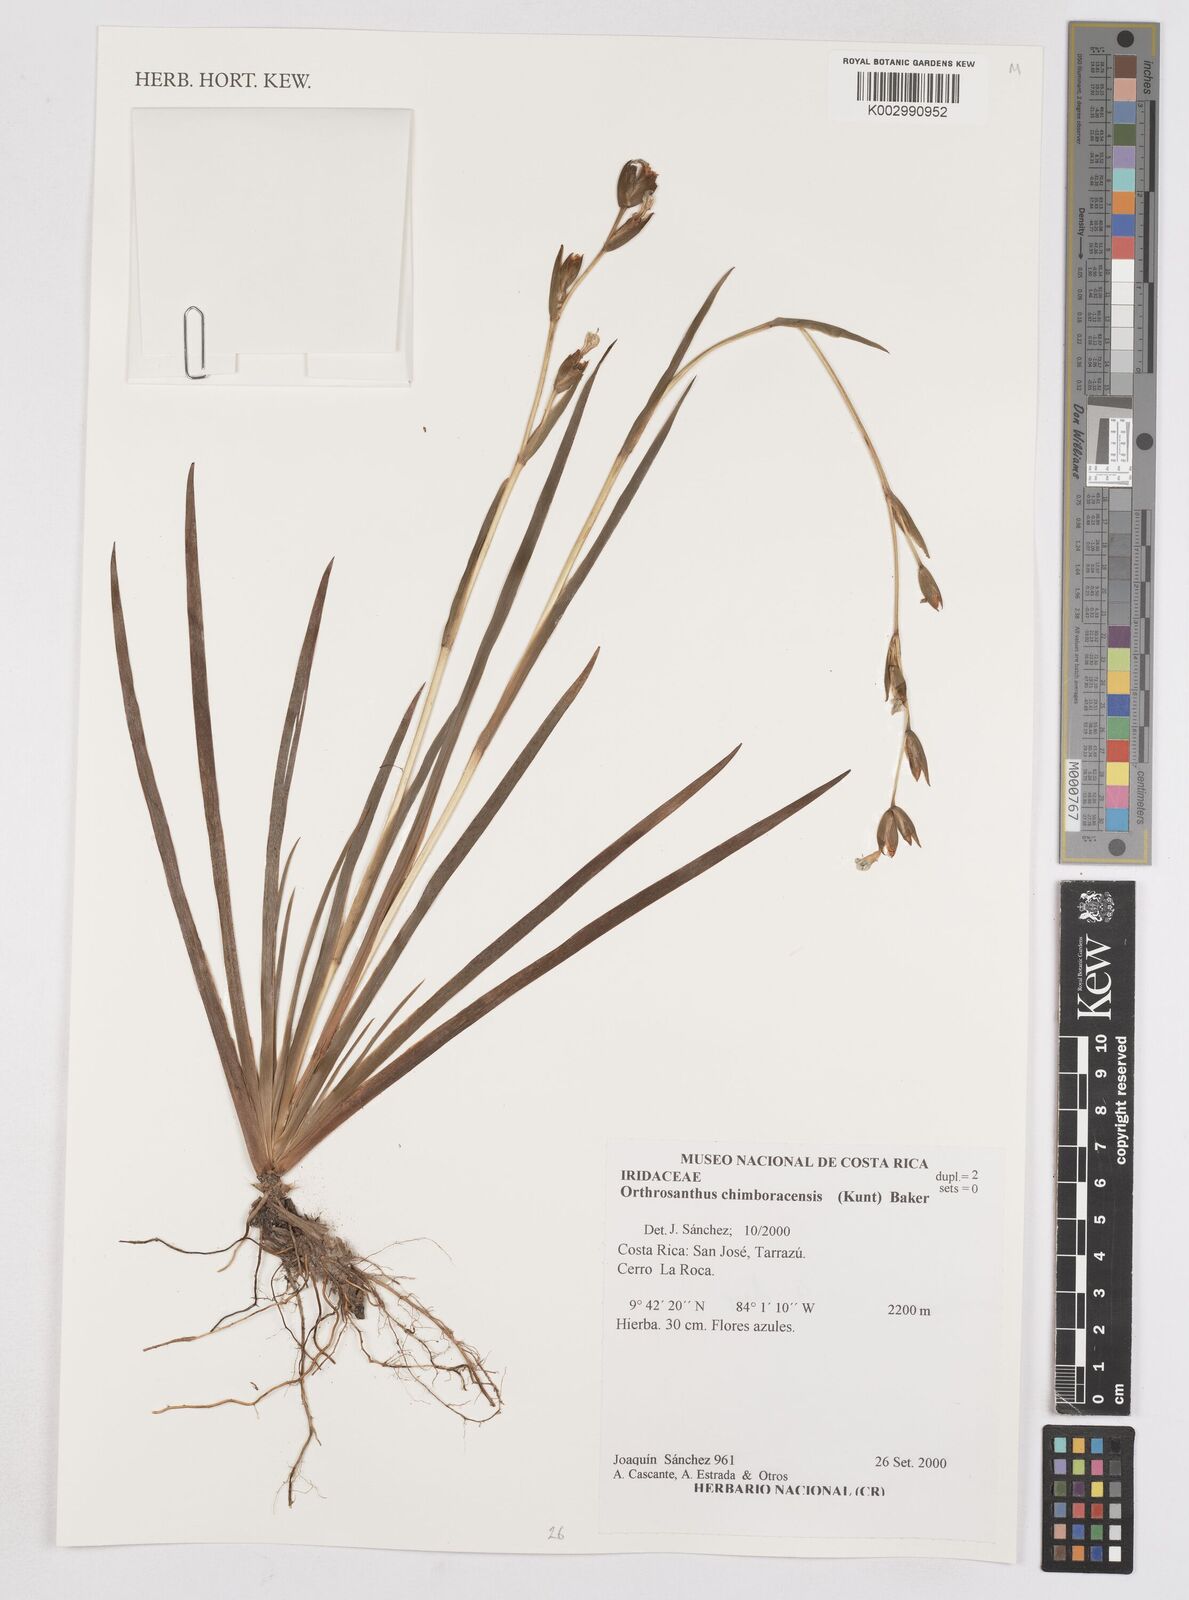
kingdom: Plantae
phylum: Tracheophyta
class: Liliopsida
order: Asparagales
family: Iridaceae
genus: Orthrosanthus
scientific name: Orthrosanthus chimboracensis
